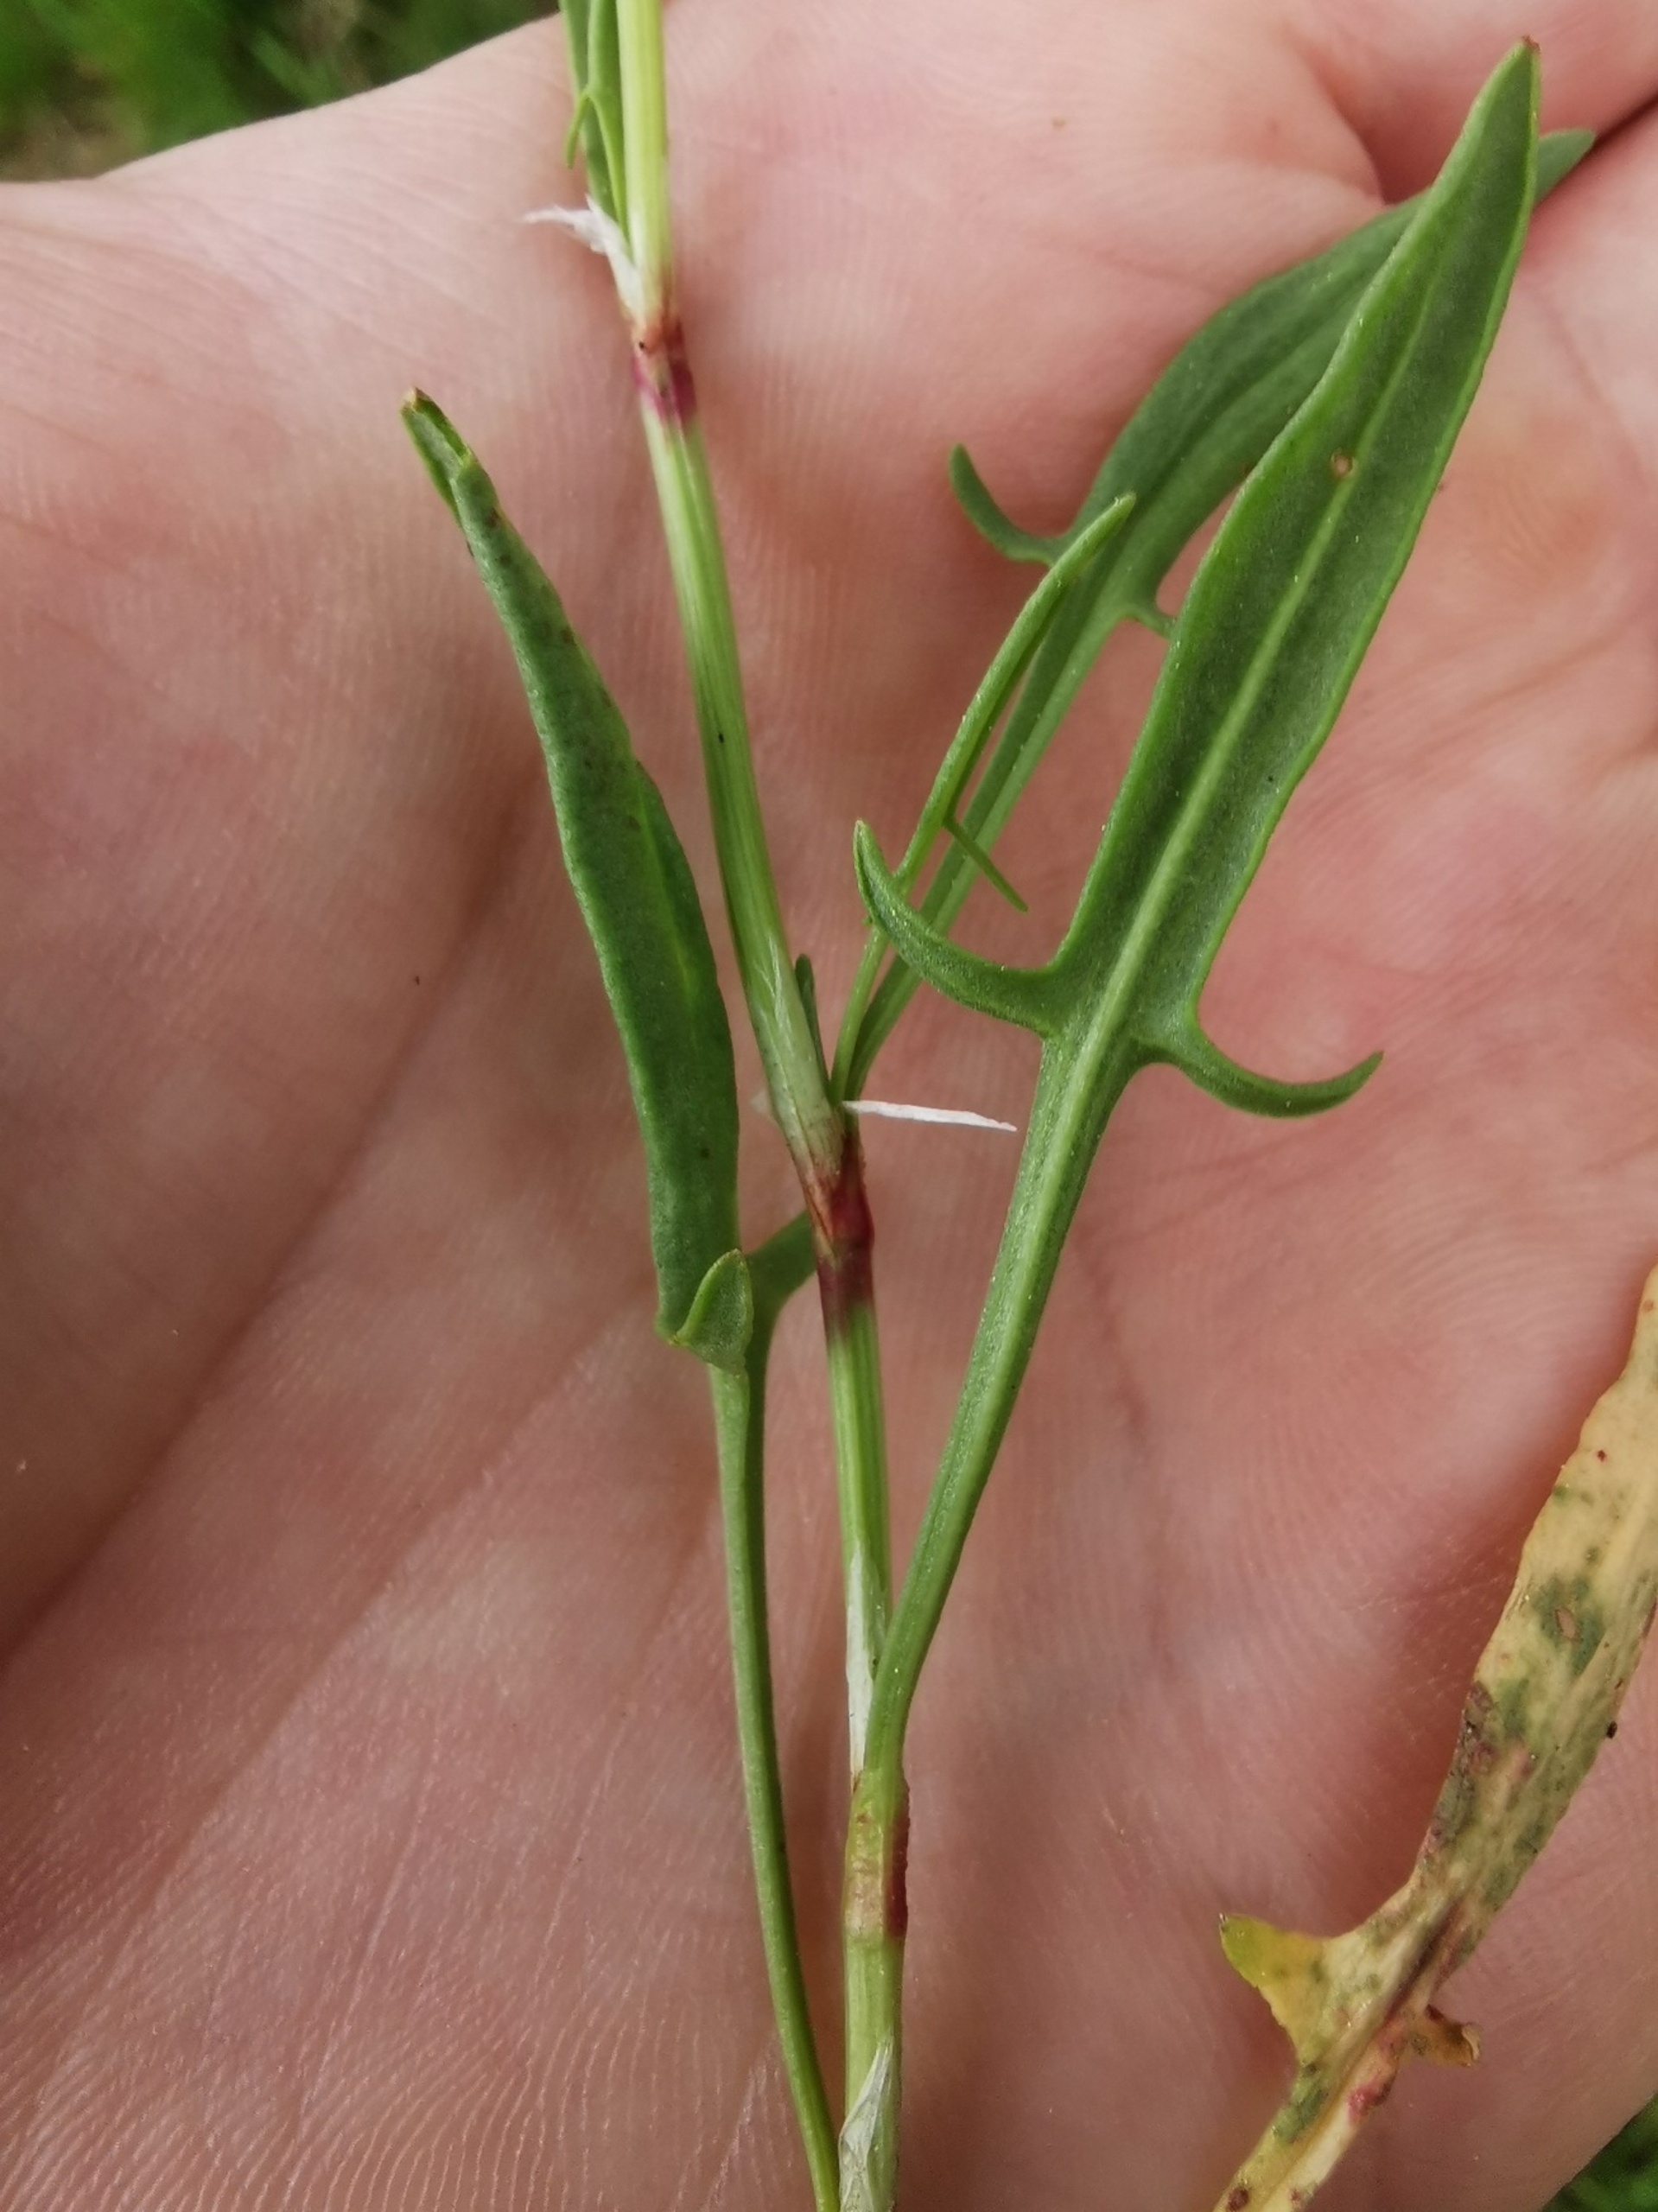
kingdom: Plantae
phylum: Tracheophyta
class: Magnoliopsida
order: Caryophyllales
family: Polygonaceae
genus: Rumex
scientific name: Rumex acetosella
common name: Rødknæ
